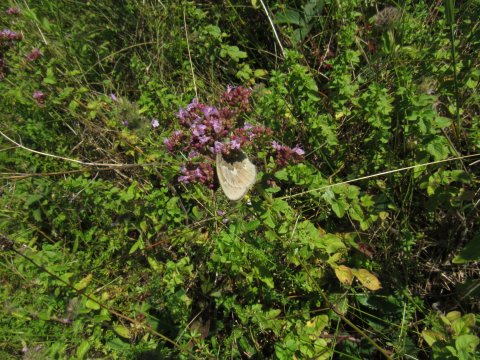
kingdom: Animalia
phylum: Arthropoda
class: Insecta
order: Lepidoptera
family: Nymphalidae
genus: Coenonympha
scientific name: Coenonympha tullia
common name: Large Heath
